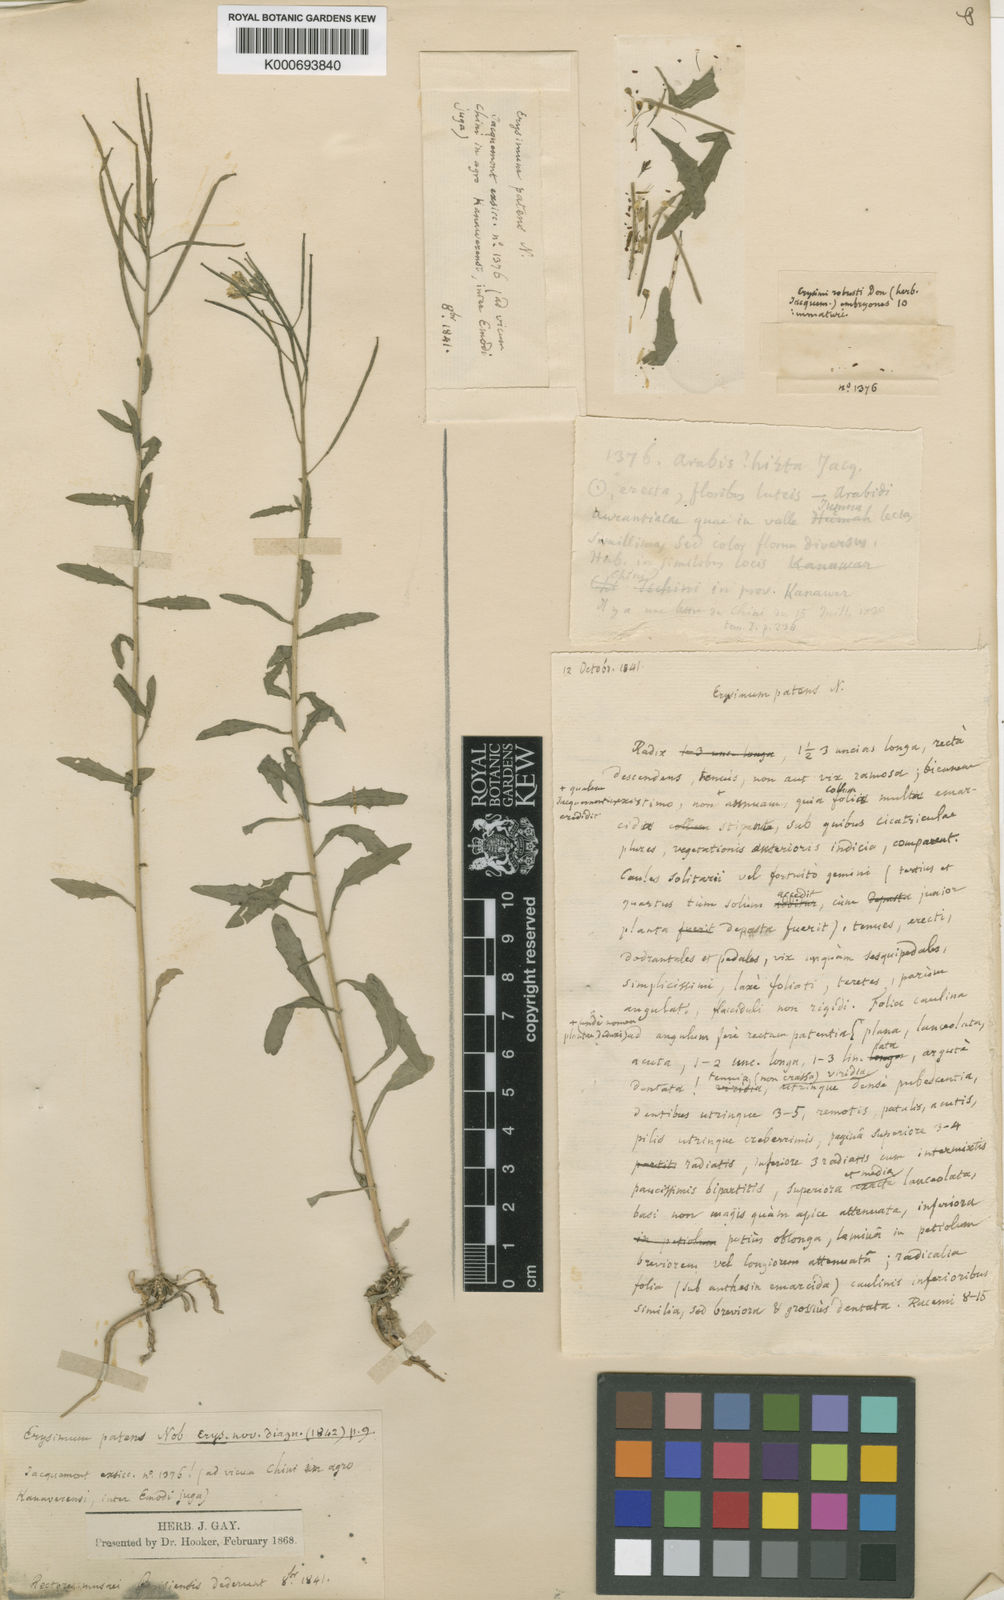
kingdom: Plantae
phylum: Tracheophyta
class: Magnoliopsida
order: Brassicales
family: Brassicaceae
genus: Erysimum
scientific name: Erysimum repandum
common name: Spreading wallflower
